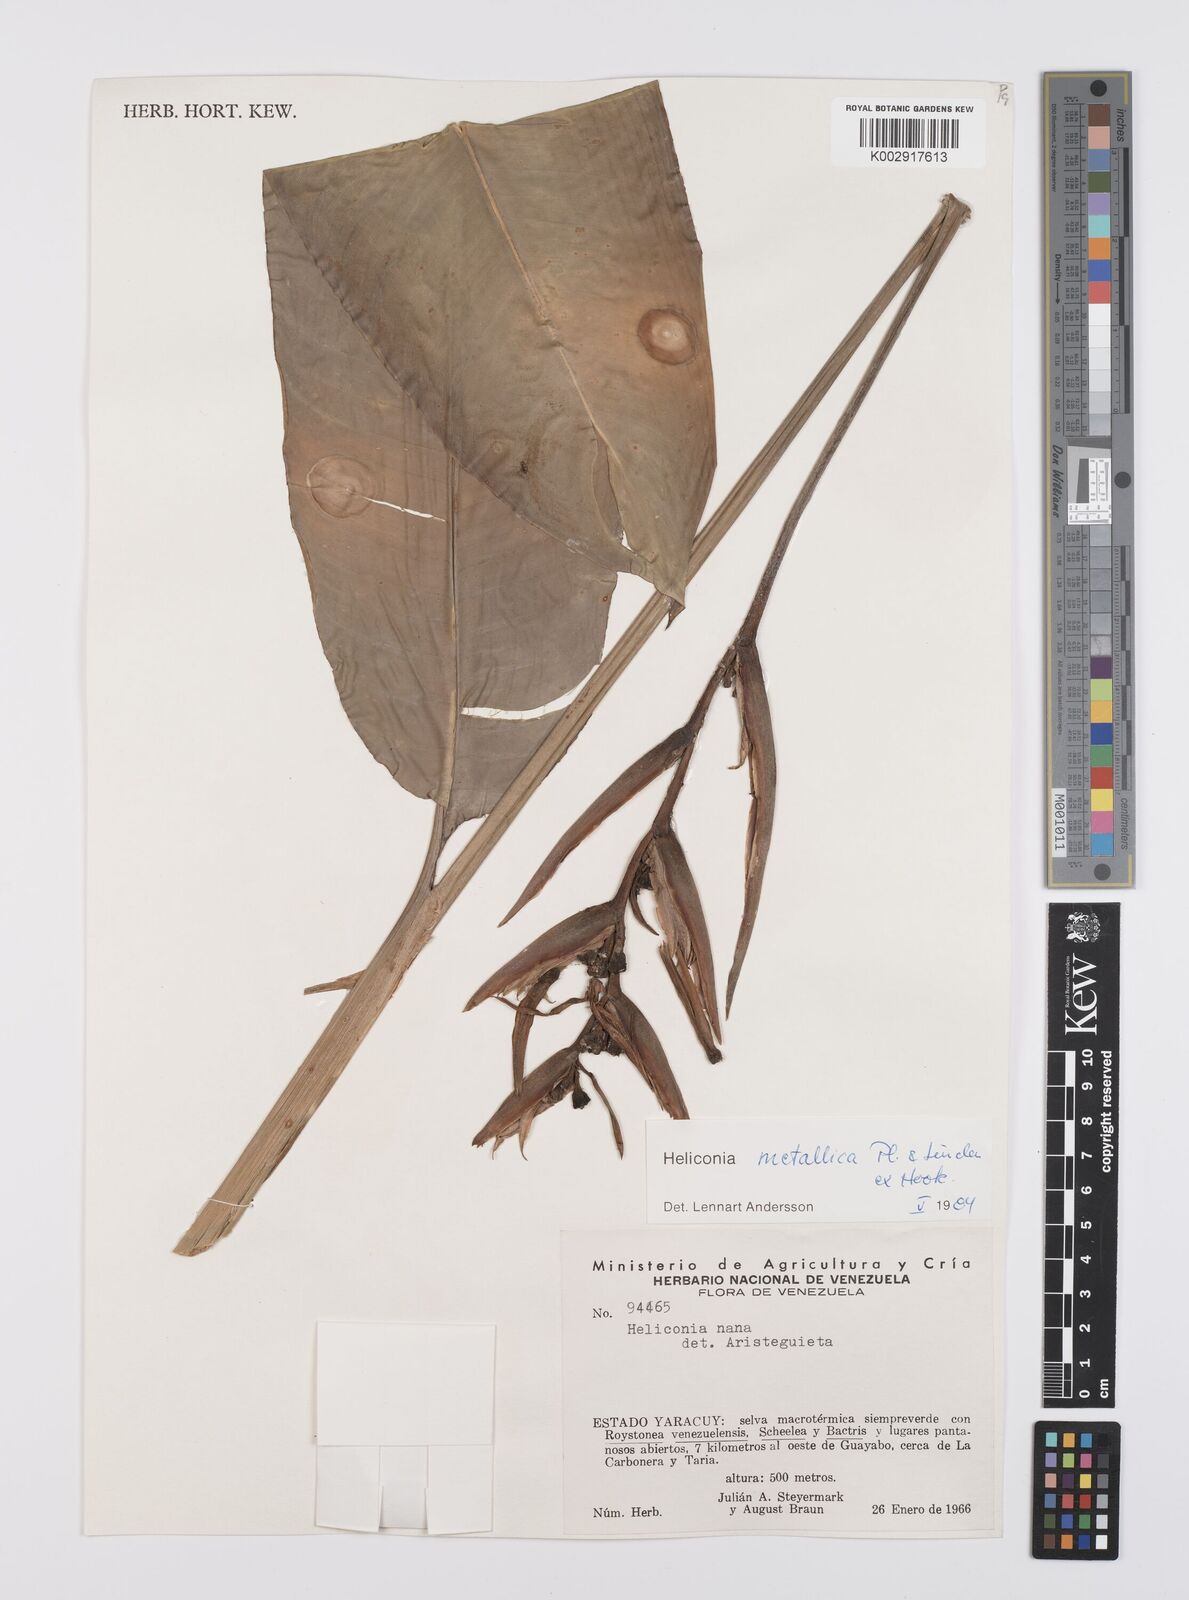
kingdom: Plantae
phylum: Tracheophyta
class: Liliopsida
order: Zingiberales
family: Heliconiaceae
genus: Heliconia
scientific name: Heliconia metallica
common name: Shining bird of paradise
